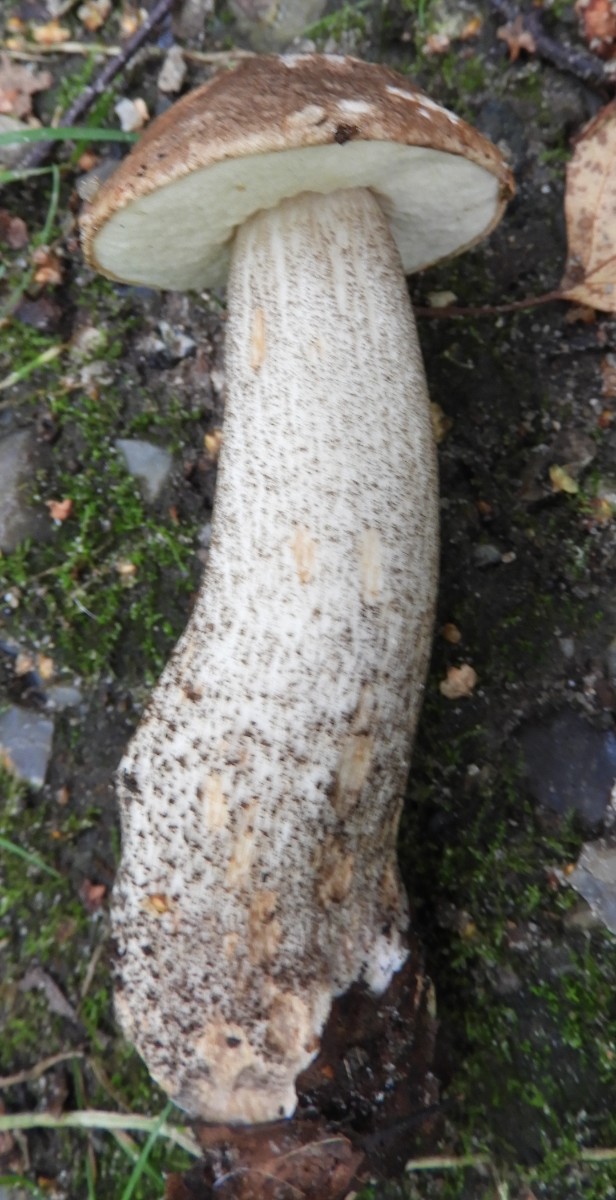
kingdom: Fungi
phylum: Basidiomycota
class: Agaricomycetes
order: Boletales
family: Boletaceae
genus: Leccinum
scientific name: Leccinum scabrum
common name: brun skælrørhat
